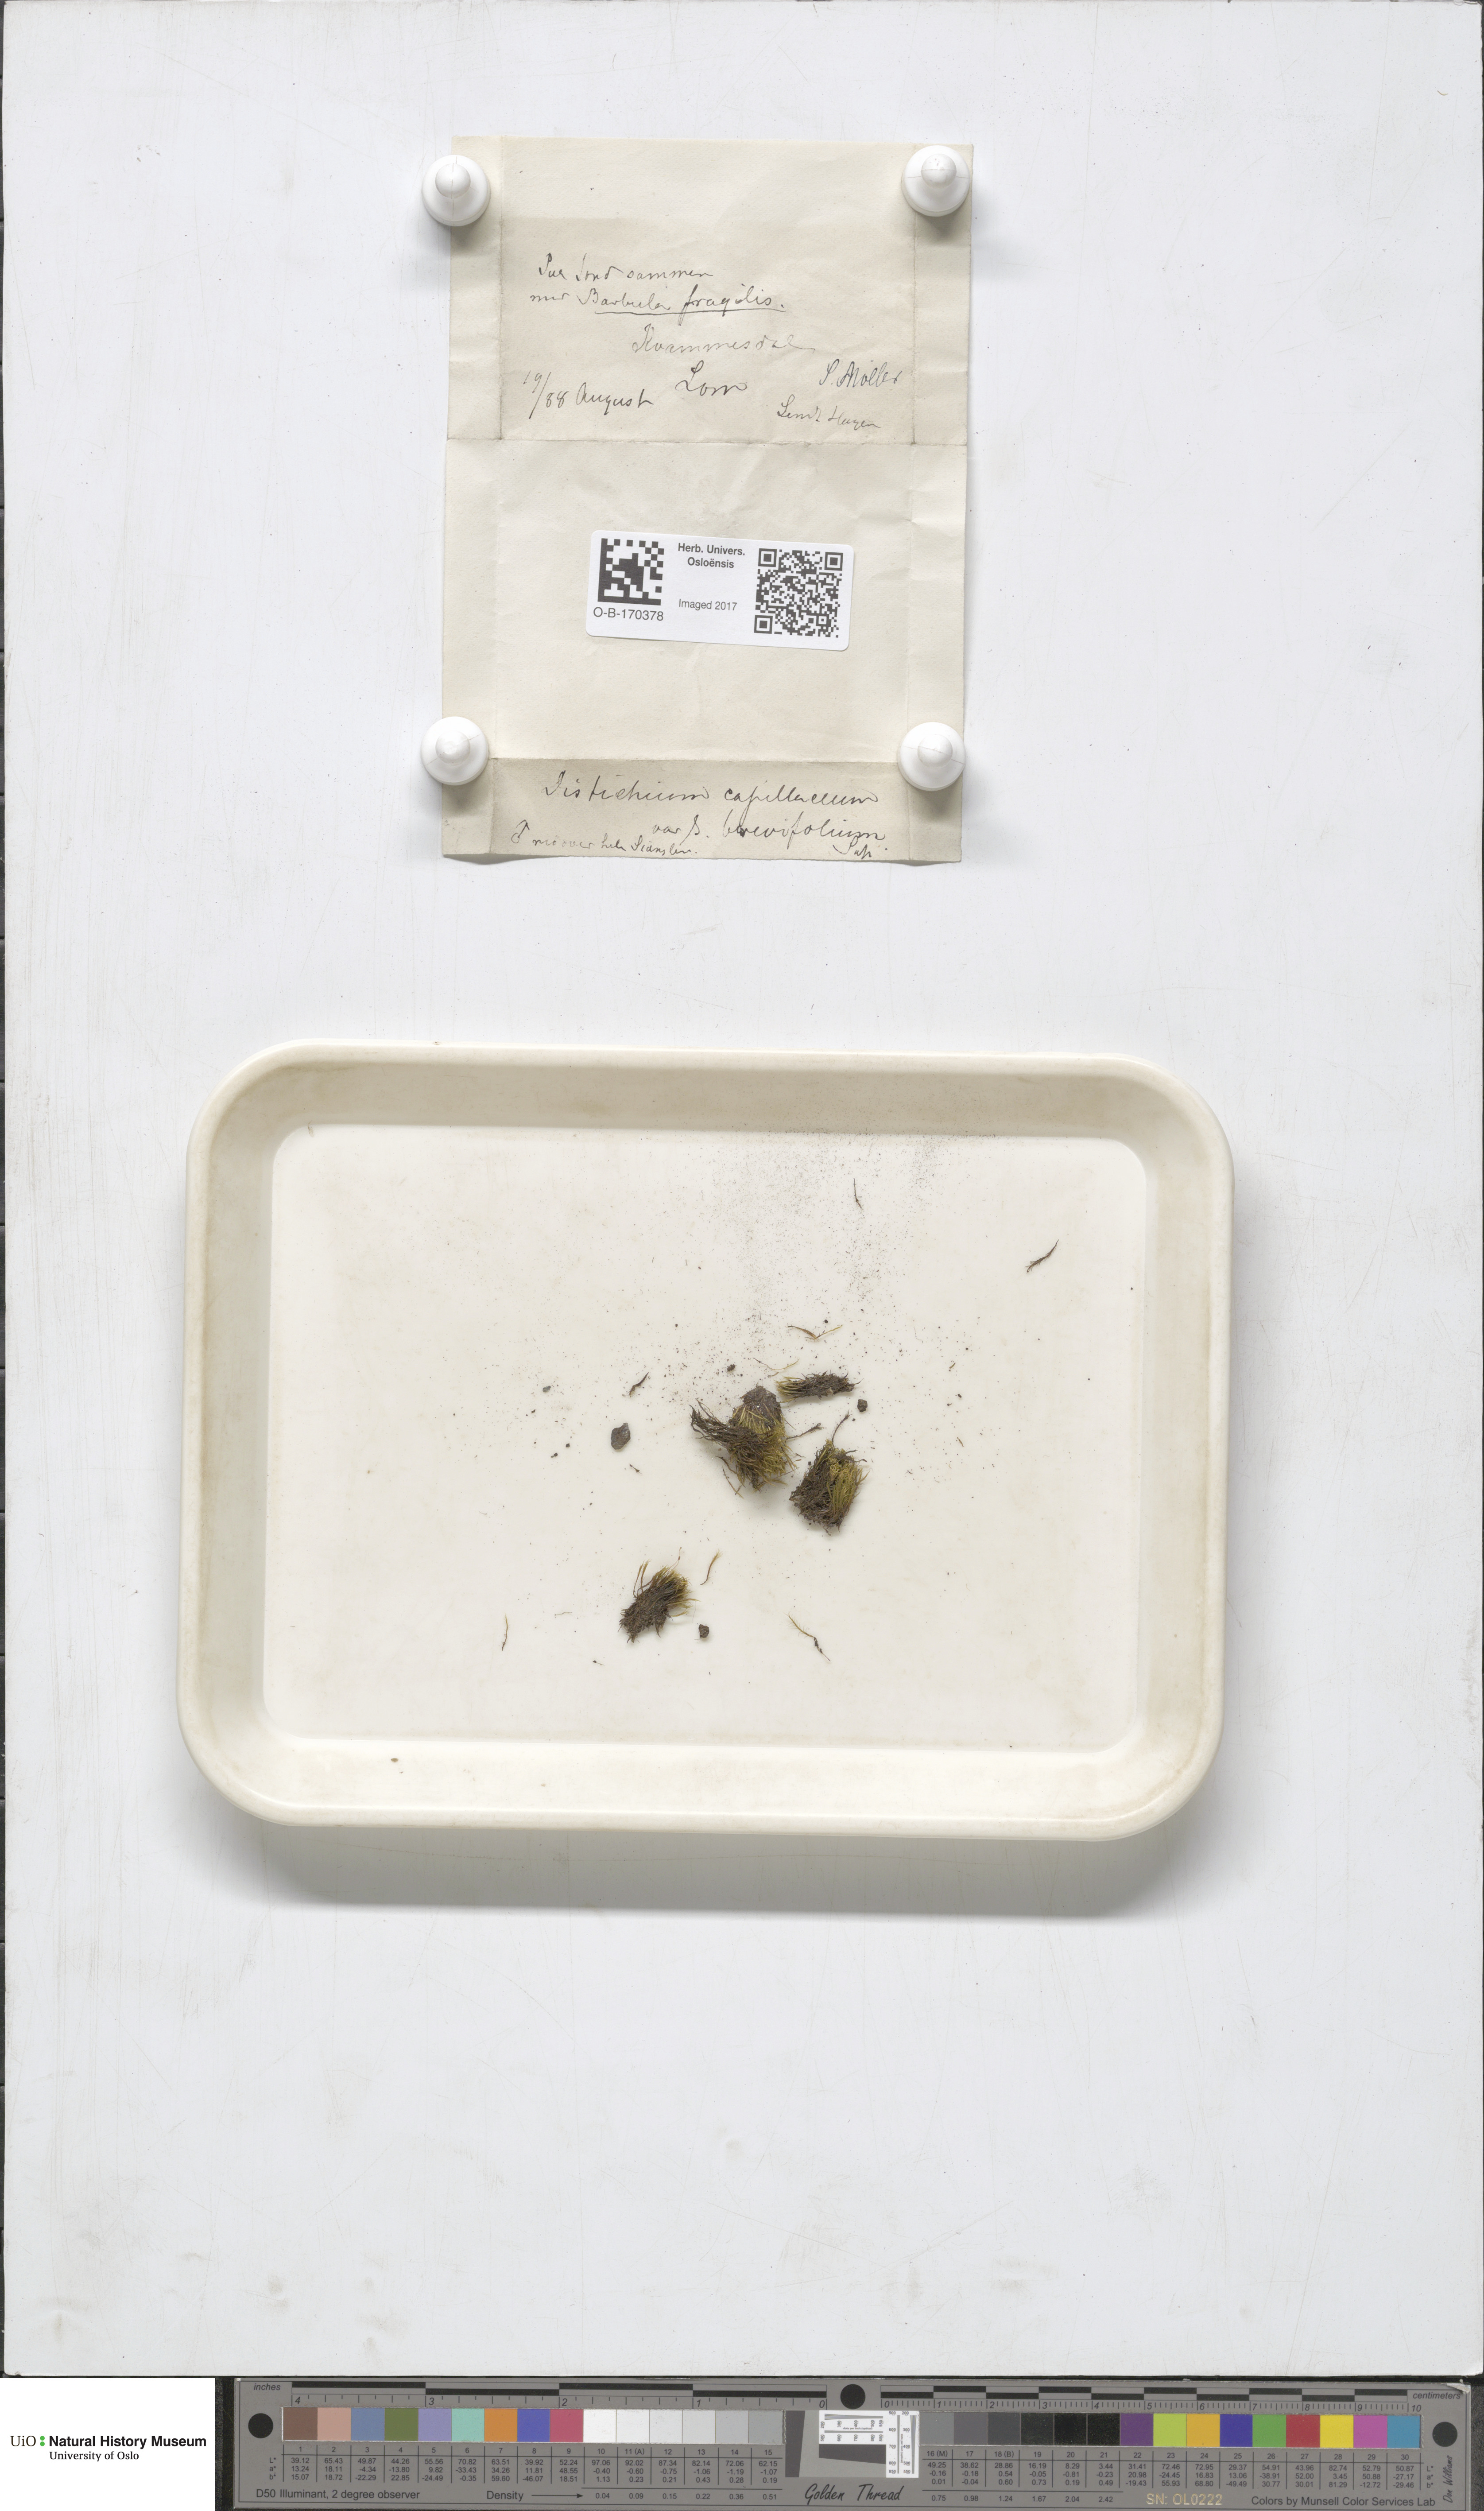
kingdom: Plantae
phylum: Bryophyta
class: Bryopsida
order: Scouleriales
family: Distichiaceae
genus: Distichium
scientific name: Distichium capillaceum
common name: Erect-fruited iris moss
